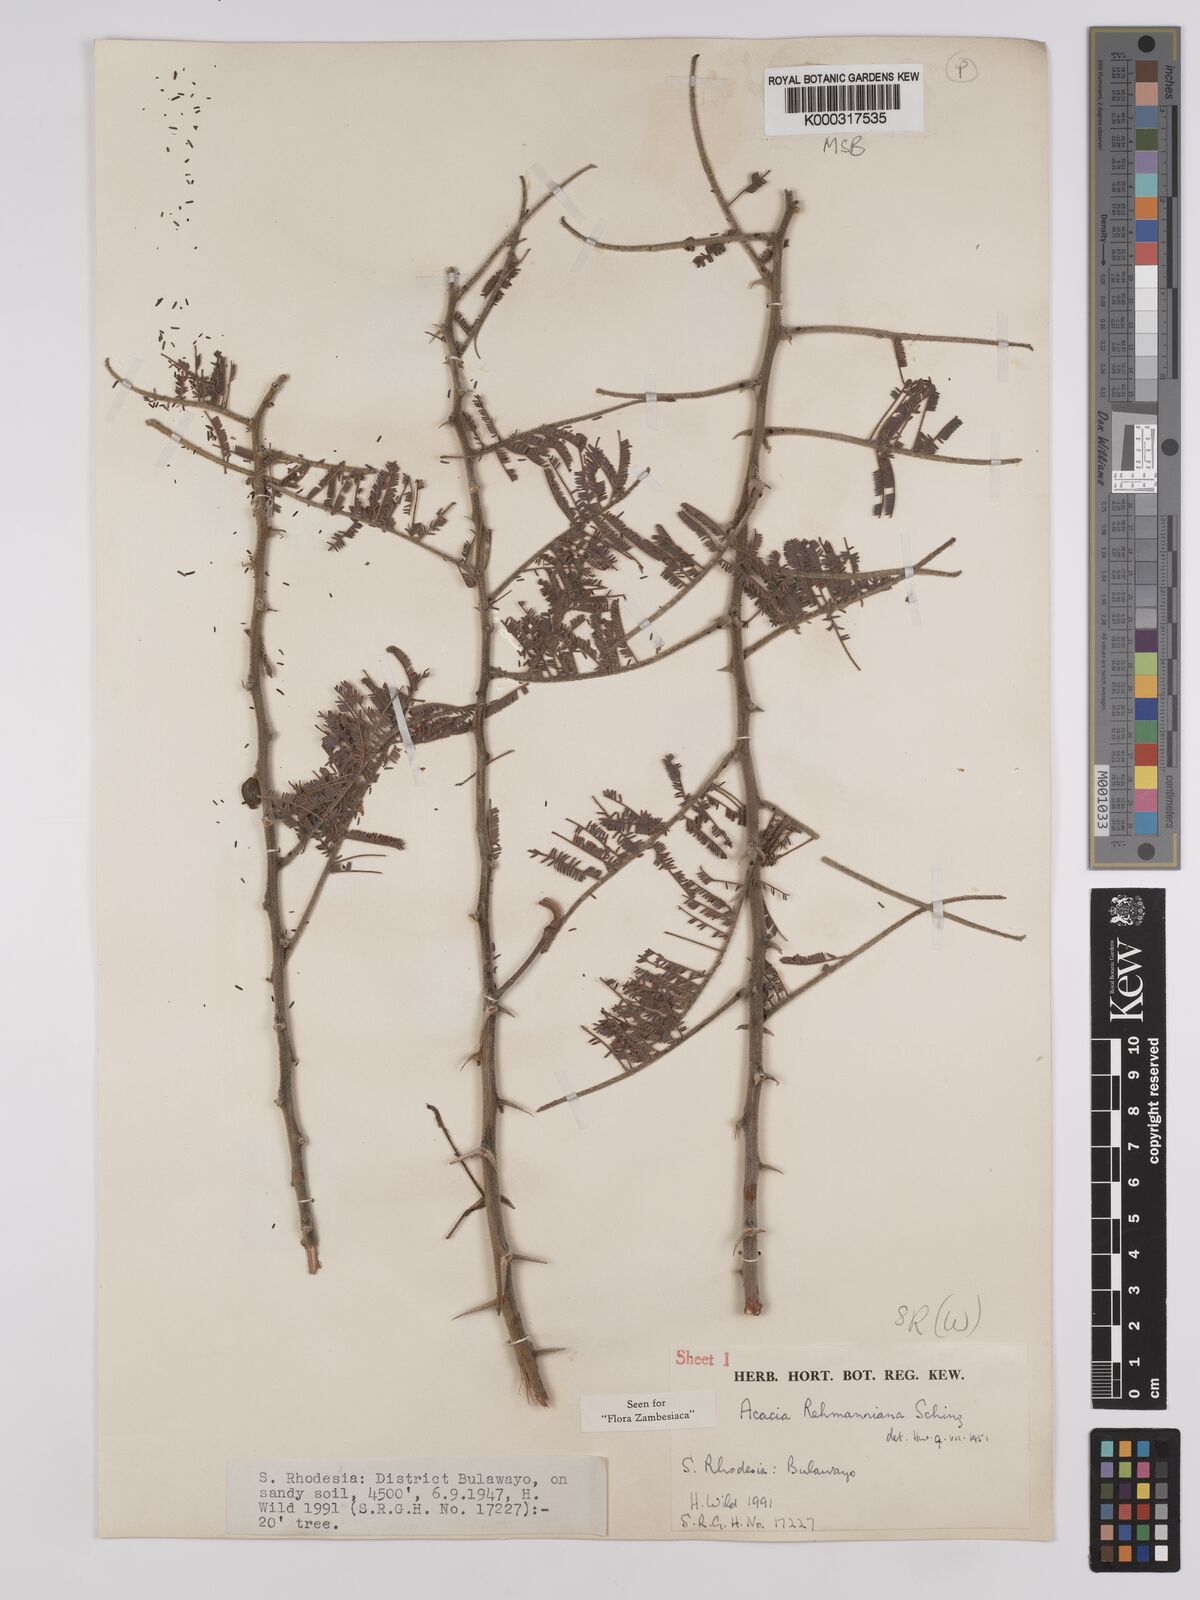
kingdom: Plantae
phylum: Tracheophyta
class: Magnoliopsida
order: Fabales
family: Fabaceae
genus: Vachellia
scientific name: Vachellia rehmanniana
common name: Silky thorn
